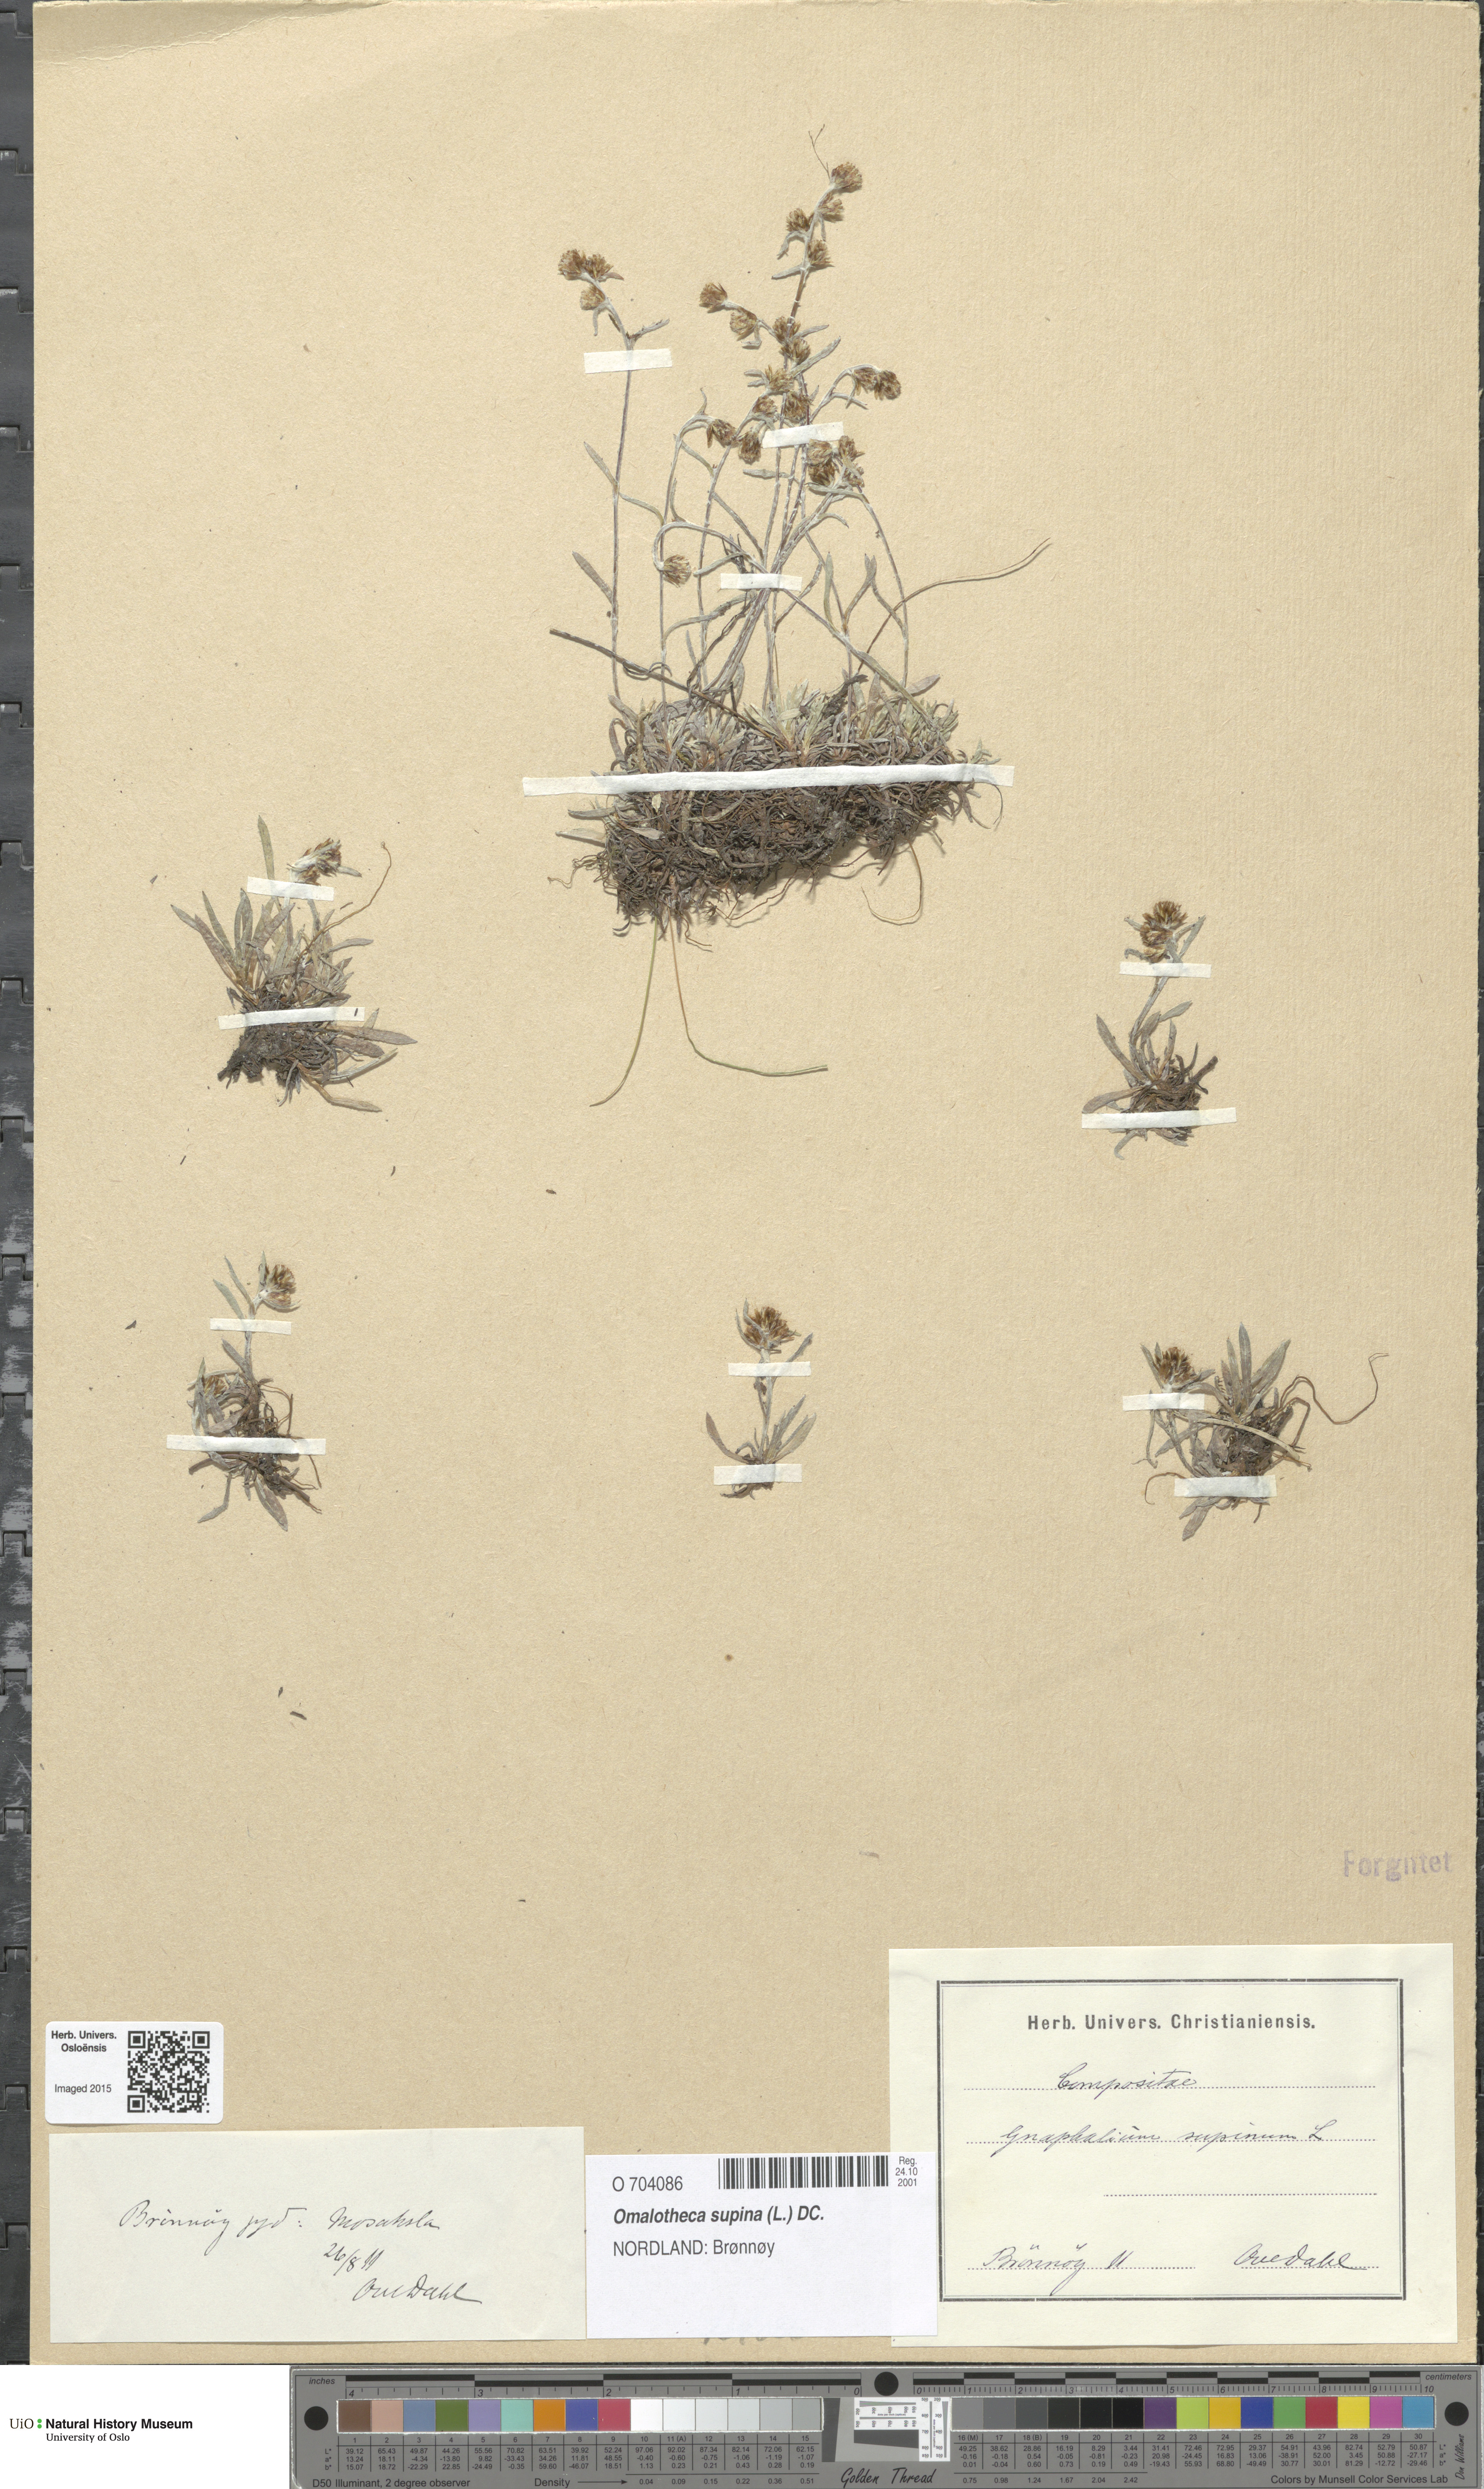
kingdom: Plantae
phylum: Tracheophyta
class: Magnoliopsida
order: Asterales
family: Asteraceae
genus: Omalotheca
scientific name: Omalotheca supina
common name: Alpine arctic-cudweed
